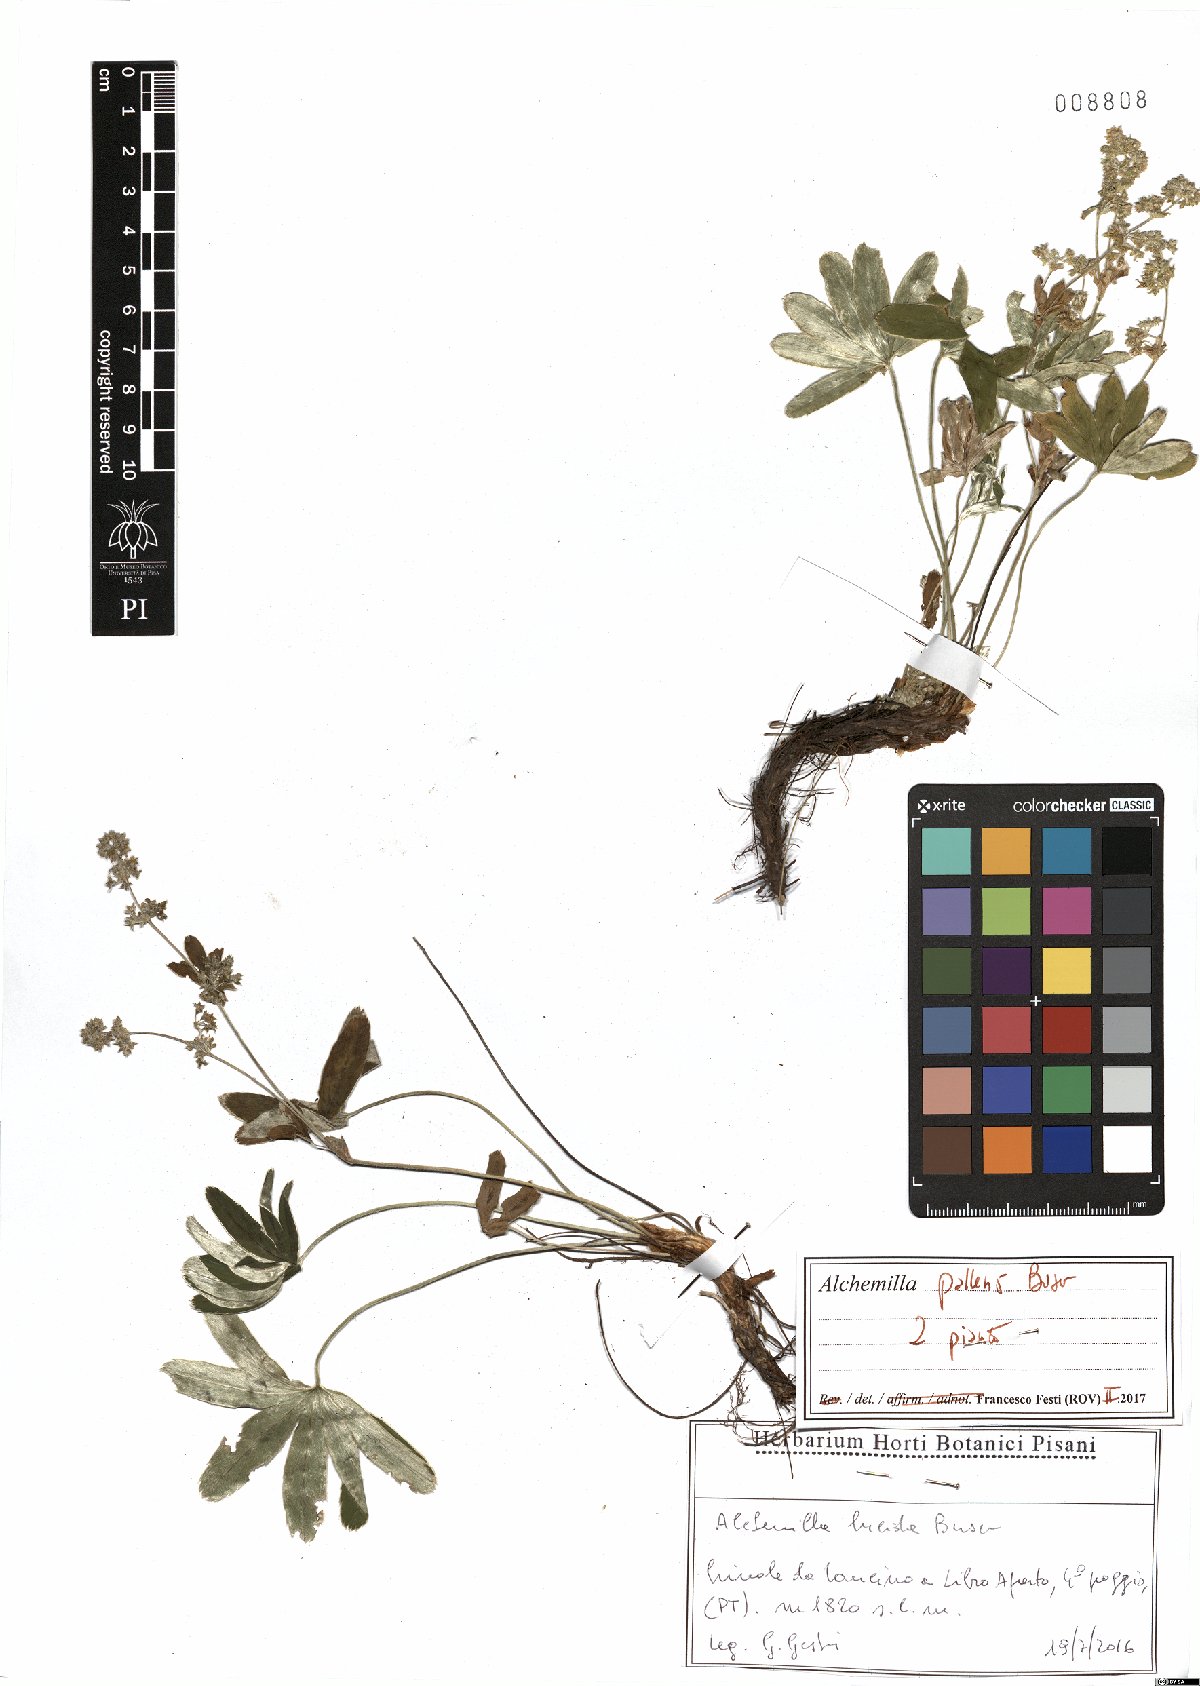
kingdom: Plantae
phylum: Tracheophyta
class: Magnoliopsida
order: Rosales
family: Rosaceae
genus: Alchemilla
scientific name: Alchemilla pallens
